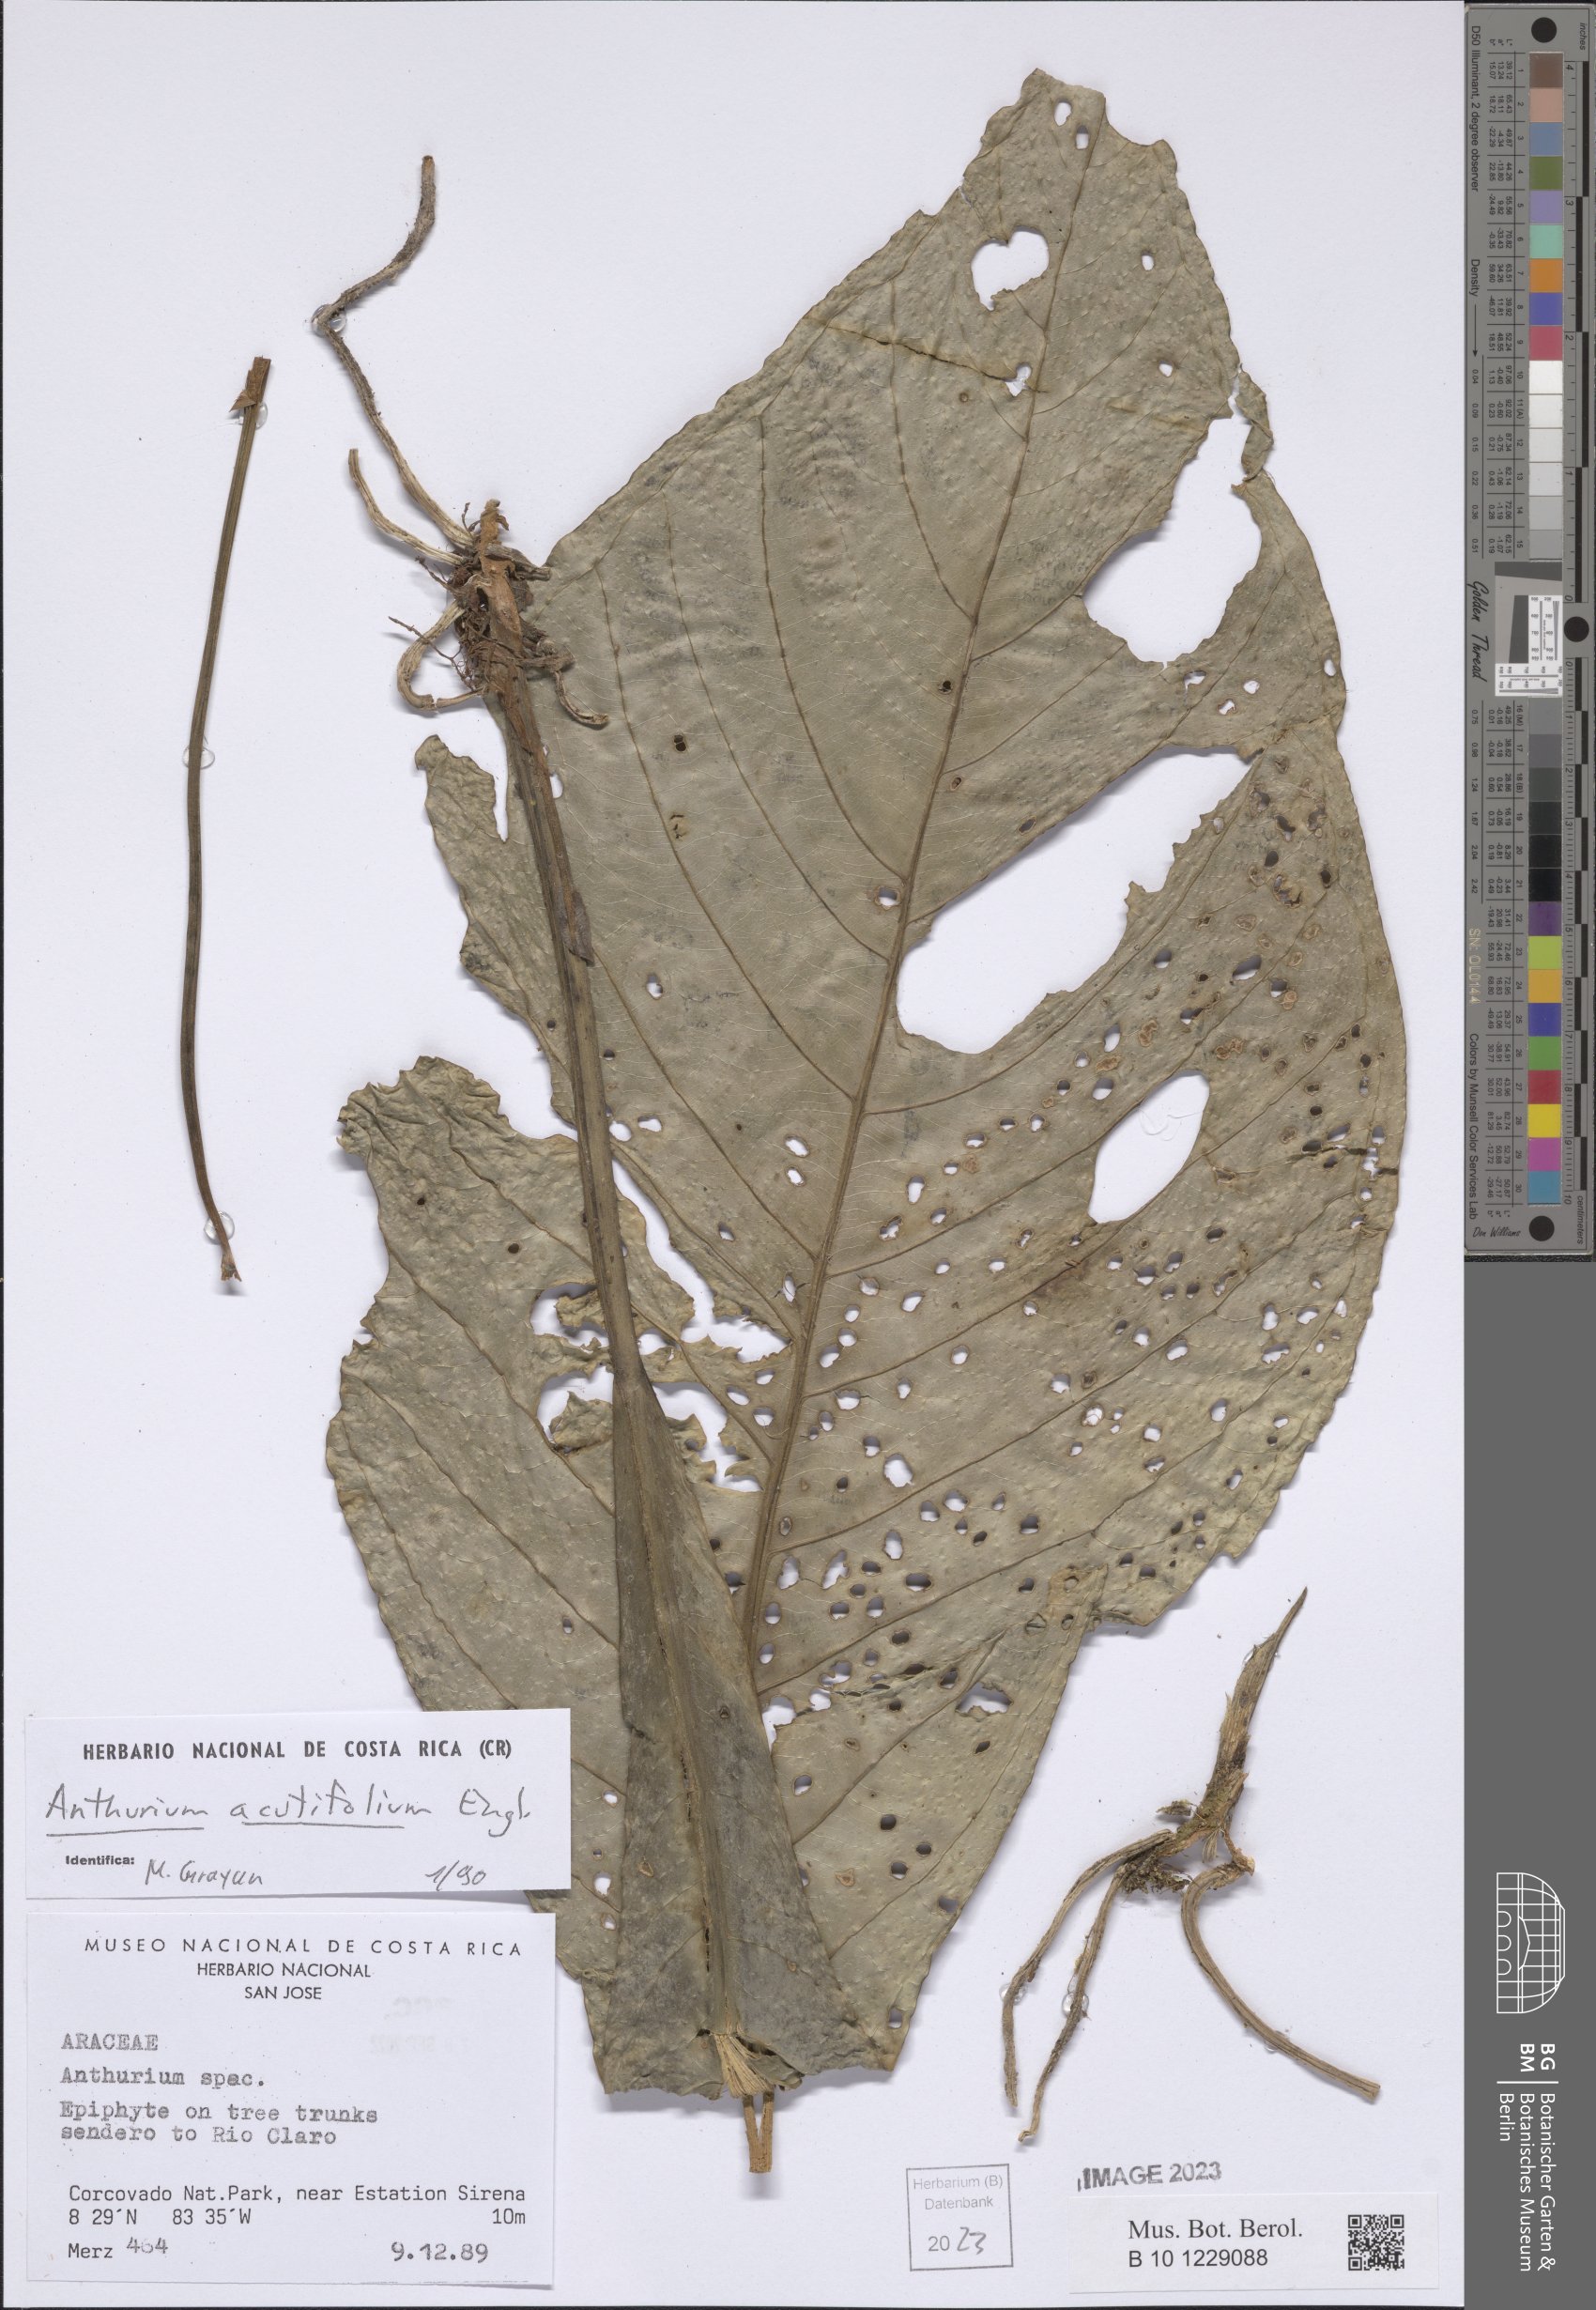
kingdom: Plantae
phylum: Tracheophyta
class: Liliopsida
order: Alismatales
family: Araceae
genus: Anthurium
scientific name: Anthurium acutifolium
